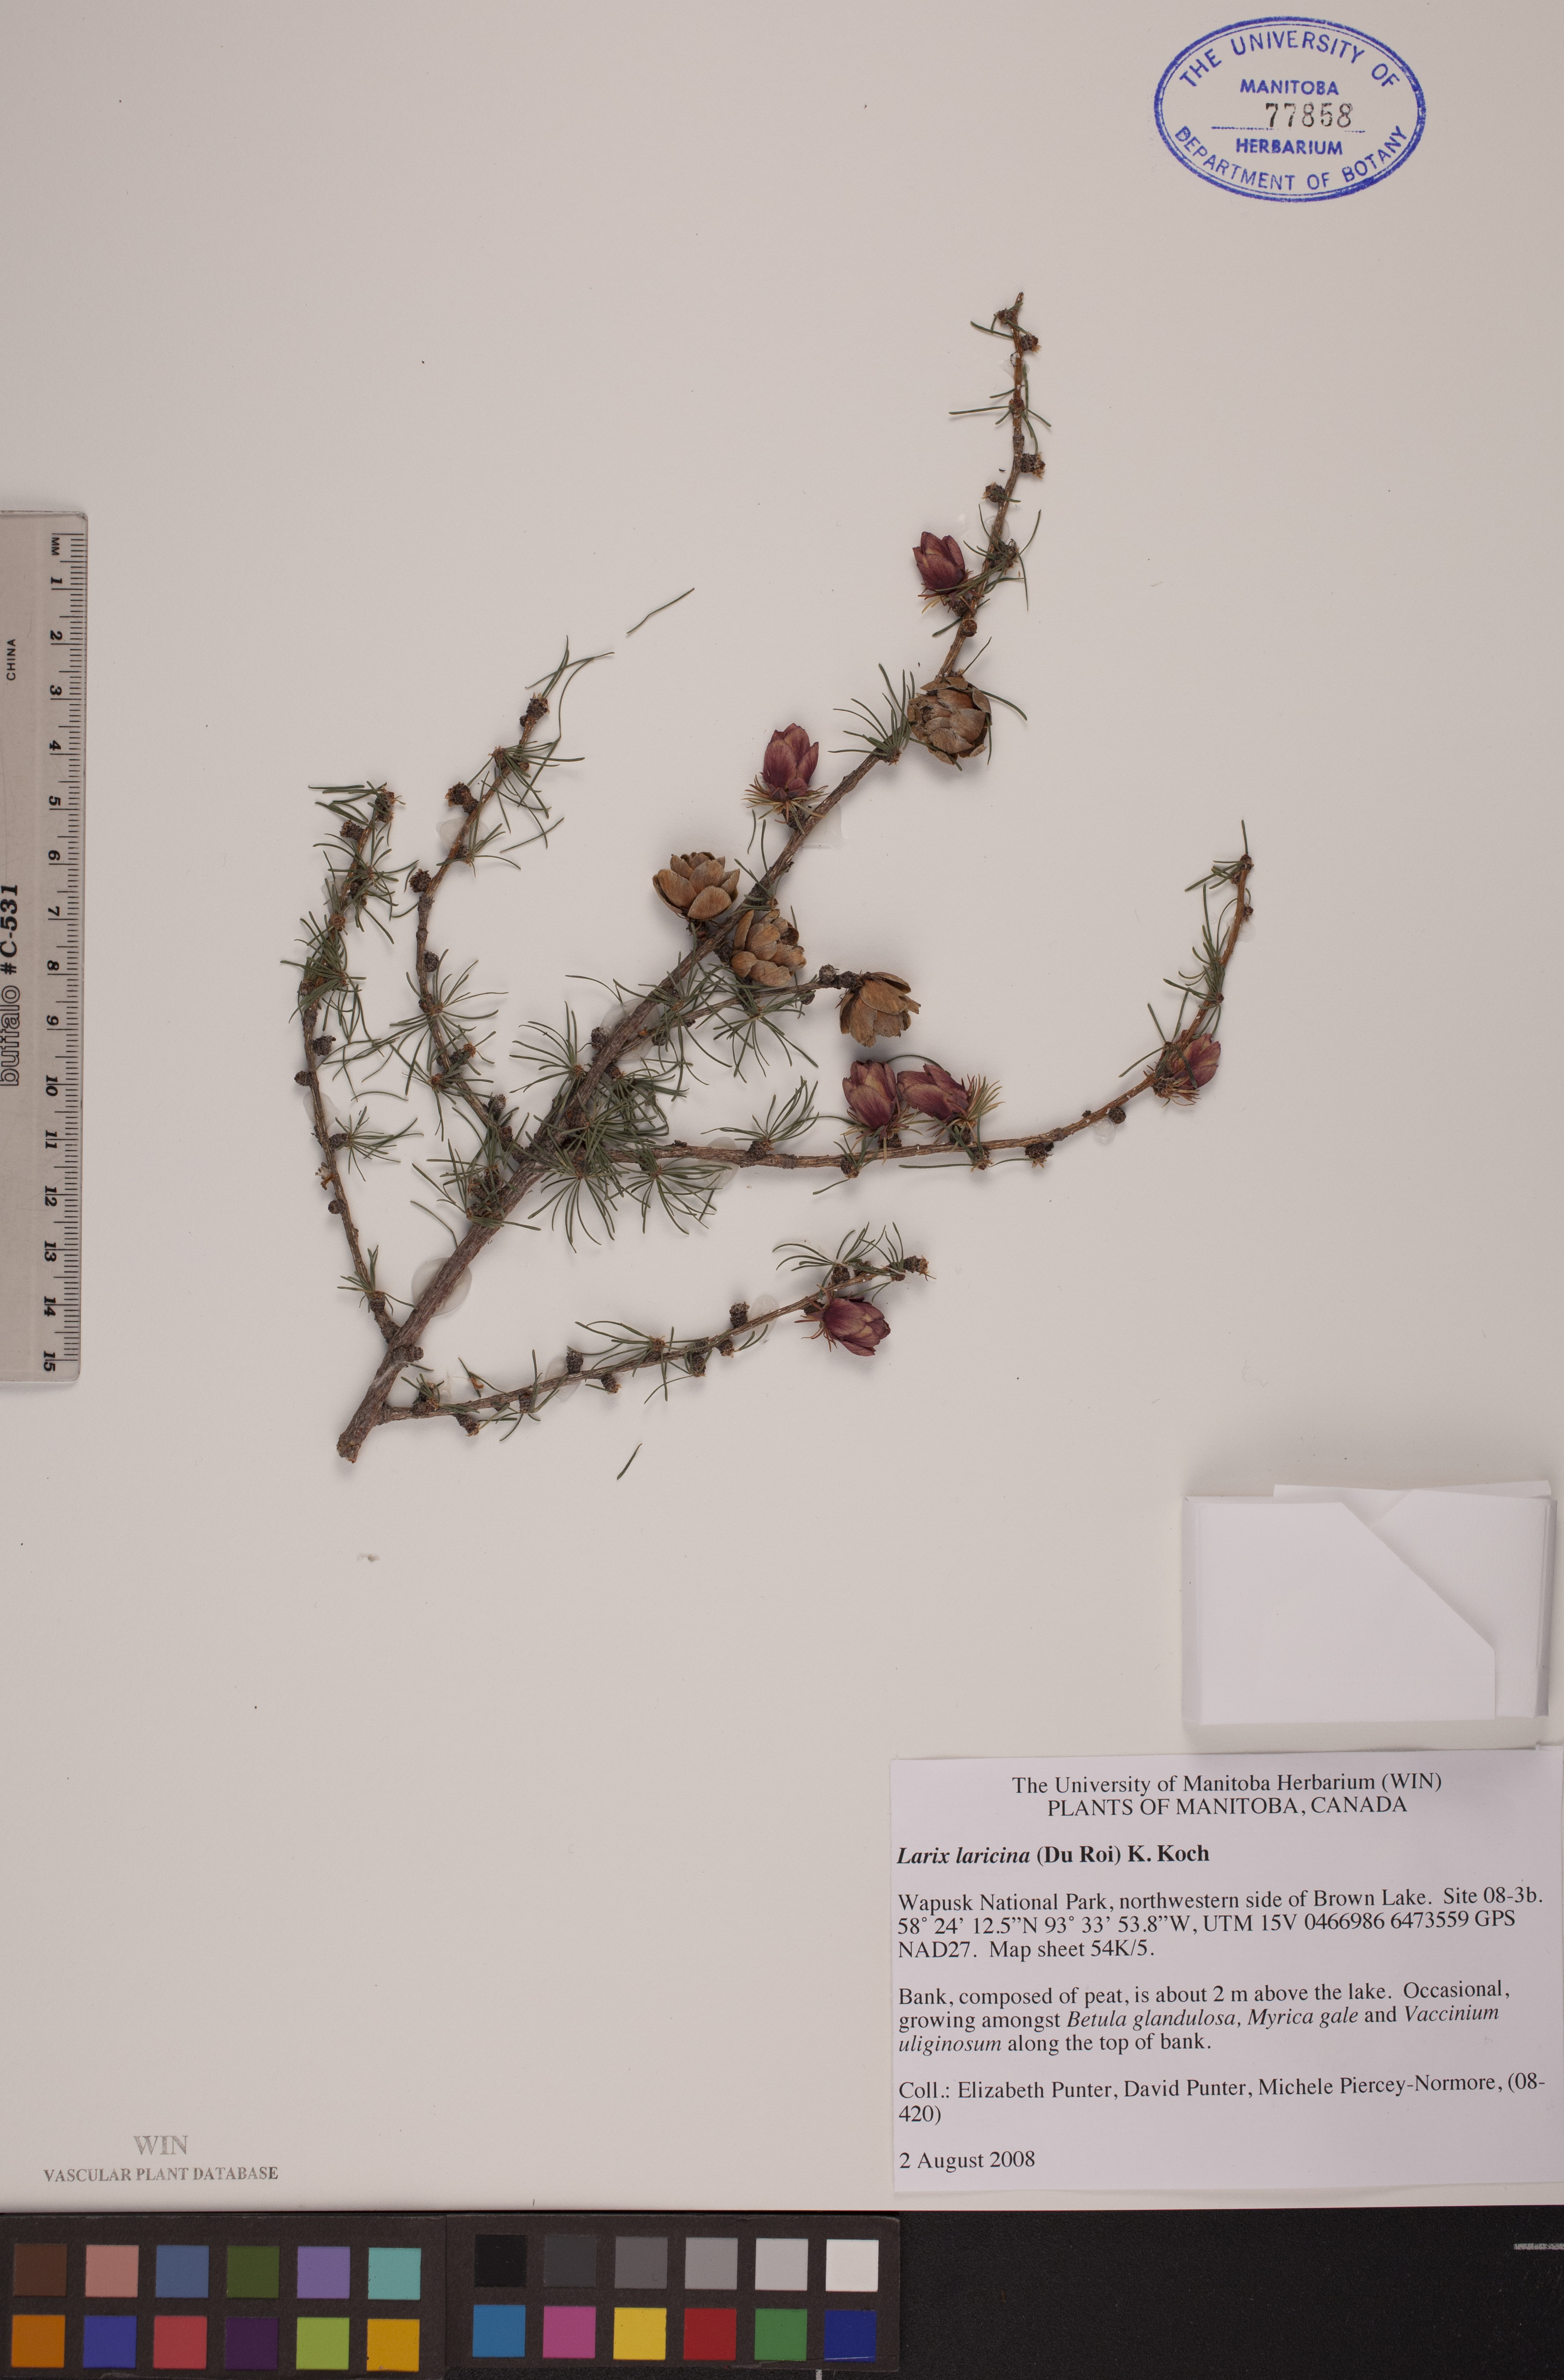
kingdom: Plantae
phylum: Tracheophyta
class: Pinopsida
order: Pinales
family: Pinaceae
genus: Larix
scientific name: Larix laricina
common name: American larch
